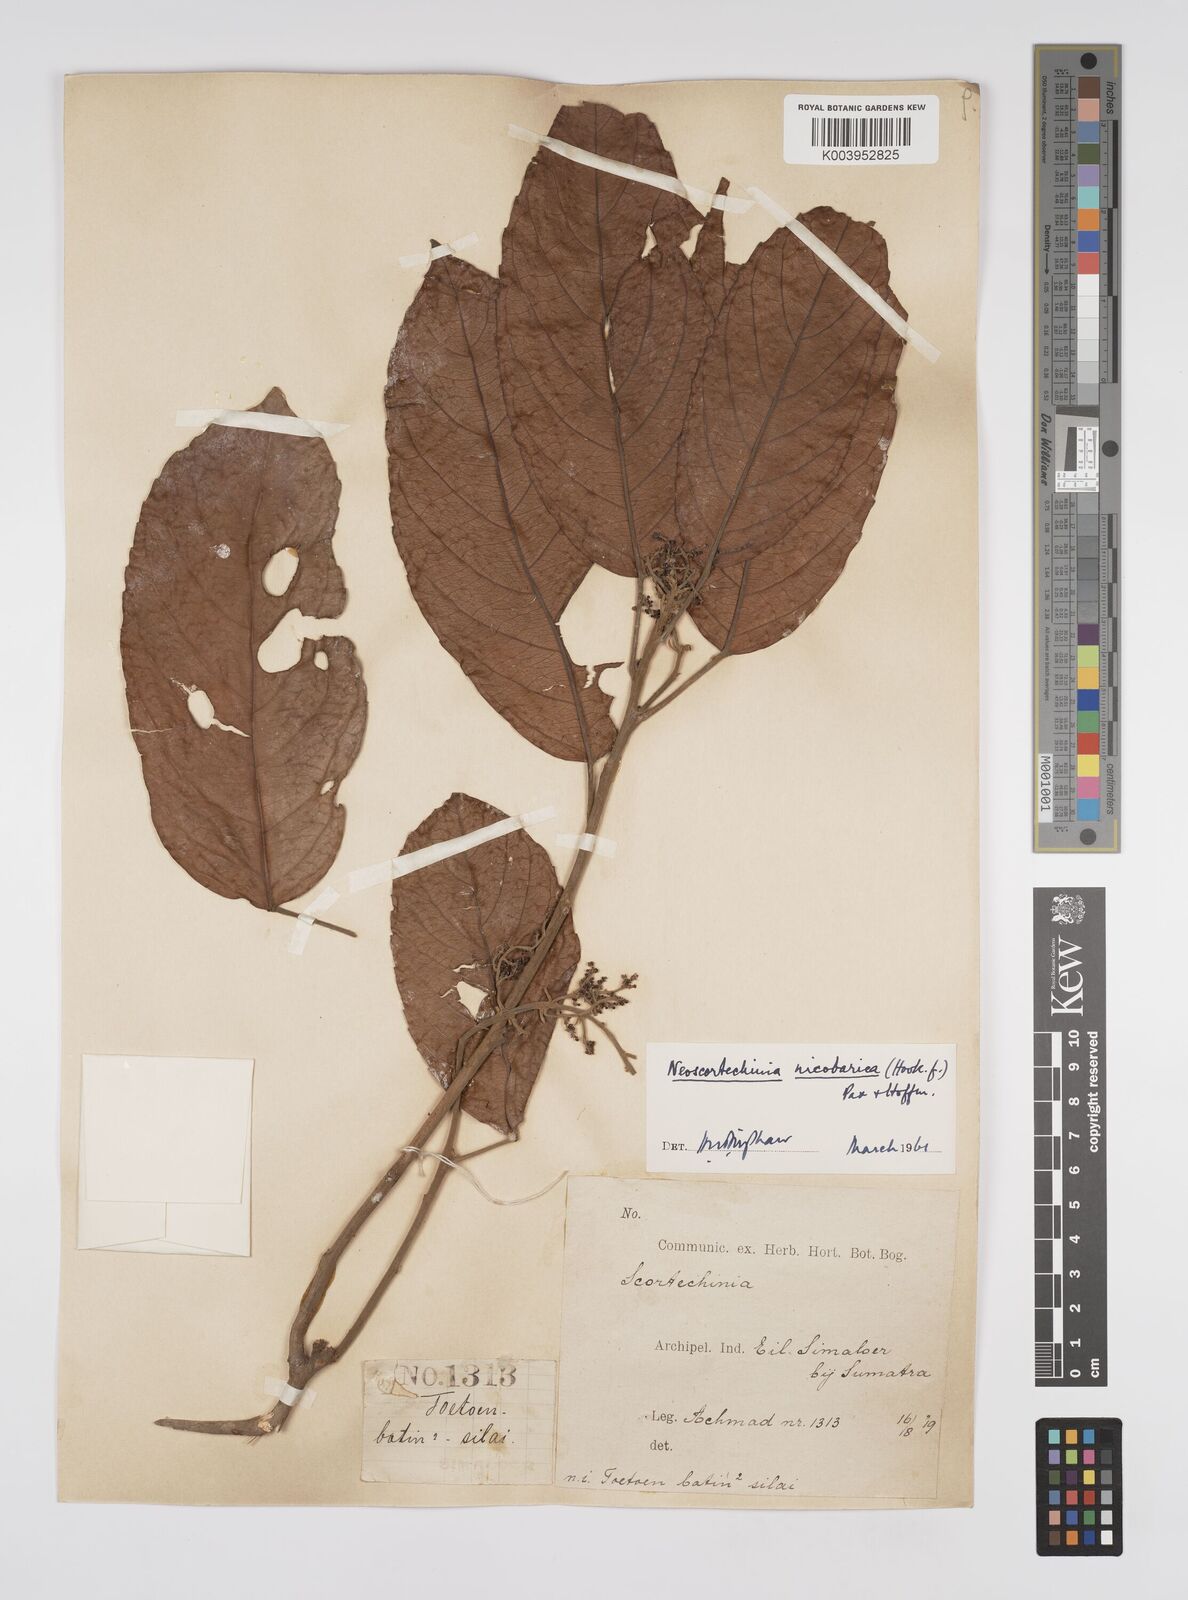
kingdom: Plantae
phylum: Tracheophyta
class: Magnoliopsida
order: Malpighiales
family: Euphorbiaceae
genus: Neoscortechinia
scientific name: Neoscortechinia nicobarica
